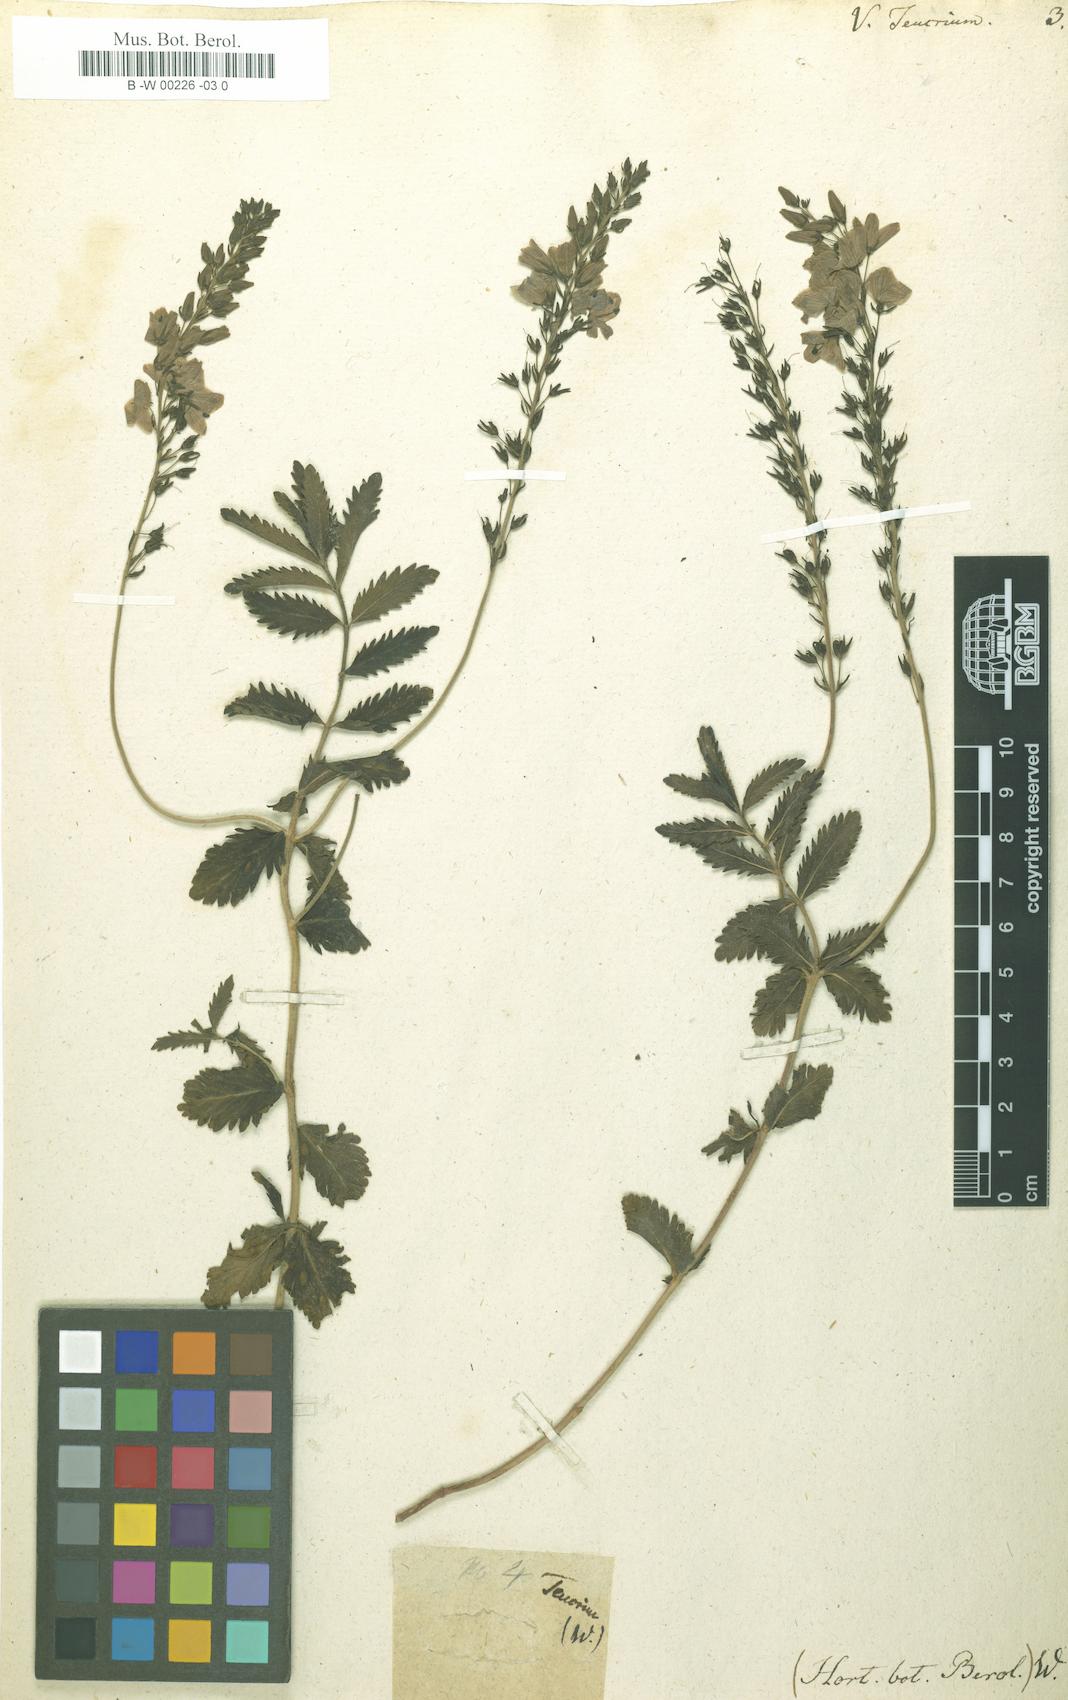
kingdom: Plantae
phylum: Tracheophyta
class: Magnoliopsida
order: Lamiales
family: Plantaginaceae
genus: Veronica
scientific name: Veronica teucrium
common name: Large speedwell
